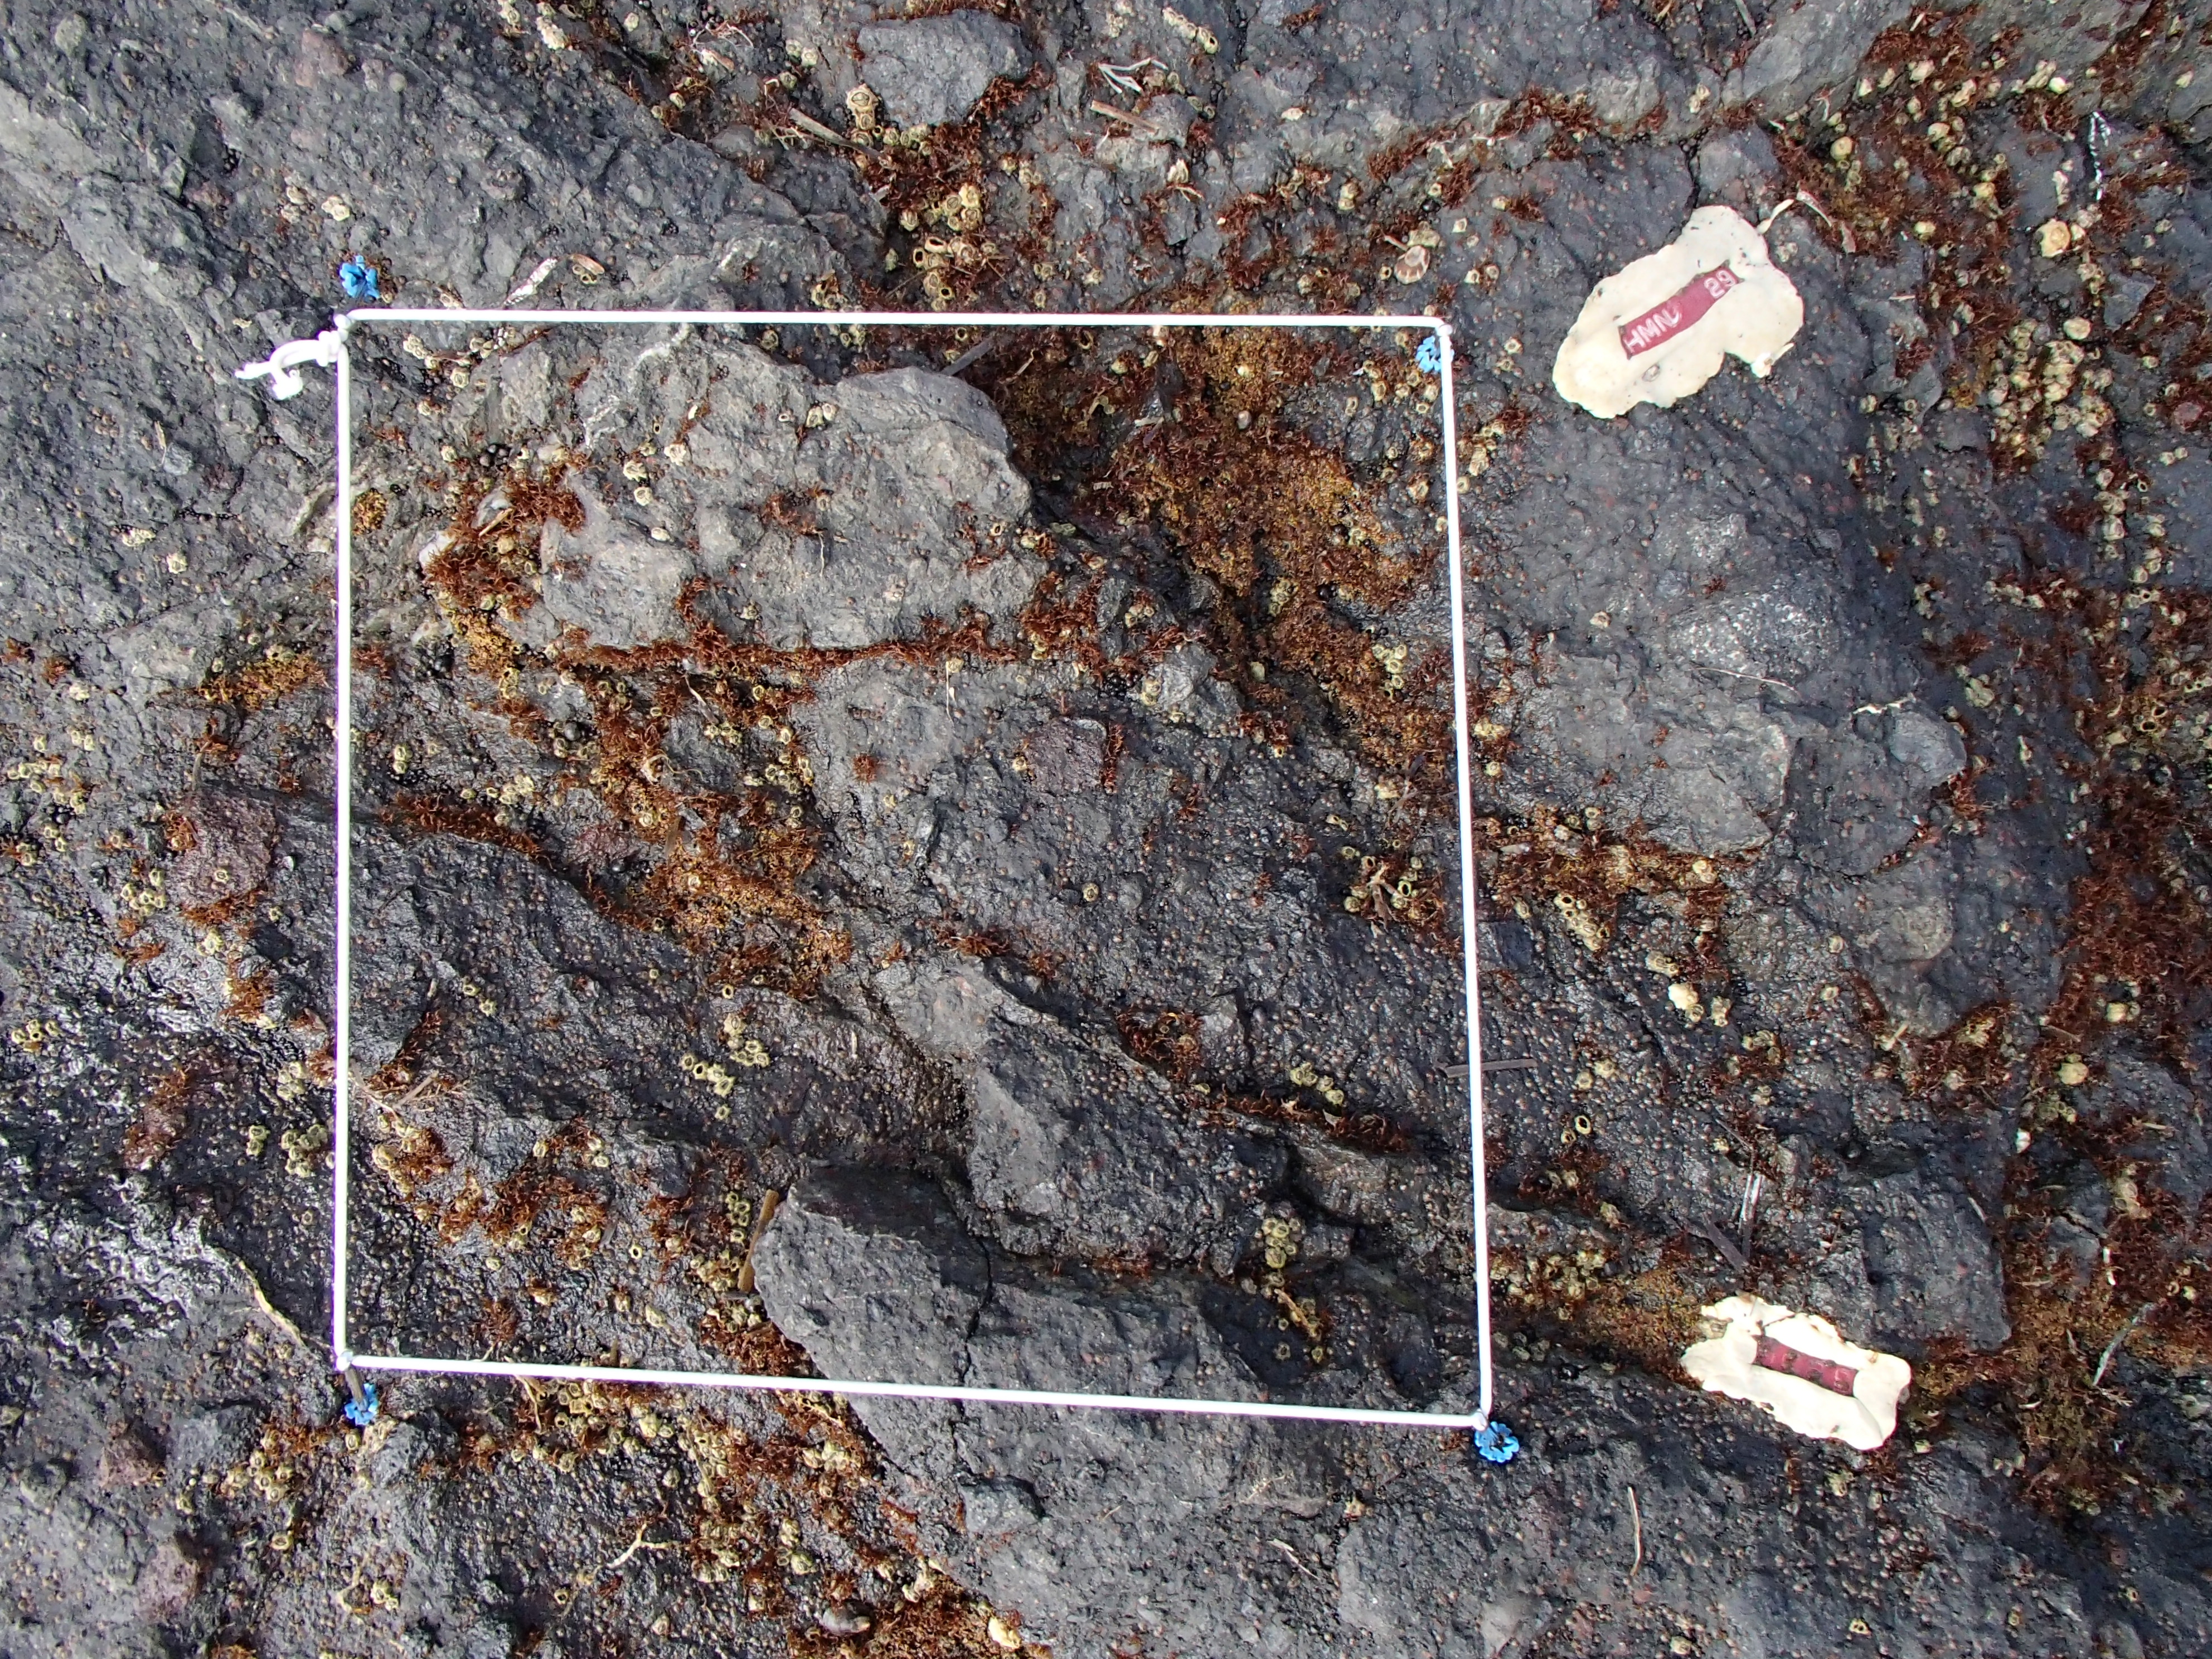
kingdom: Animalia
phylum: Arthropoda
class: Maxillopoda
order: Sessilia
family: Chthamalidae
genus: Chthamalus
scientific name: Chthamalus dalli
